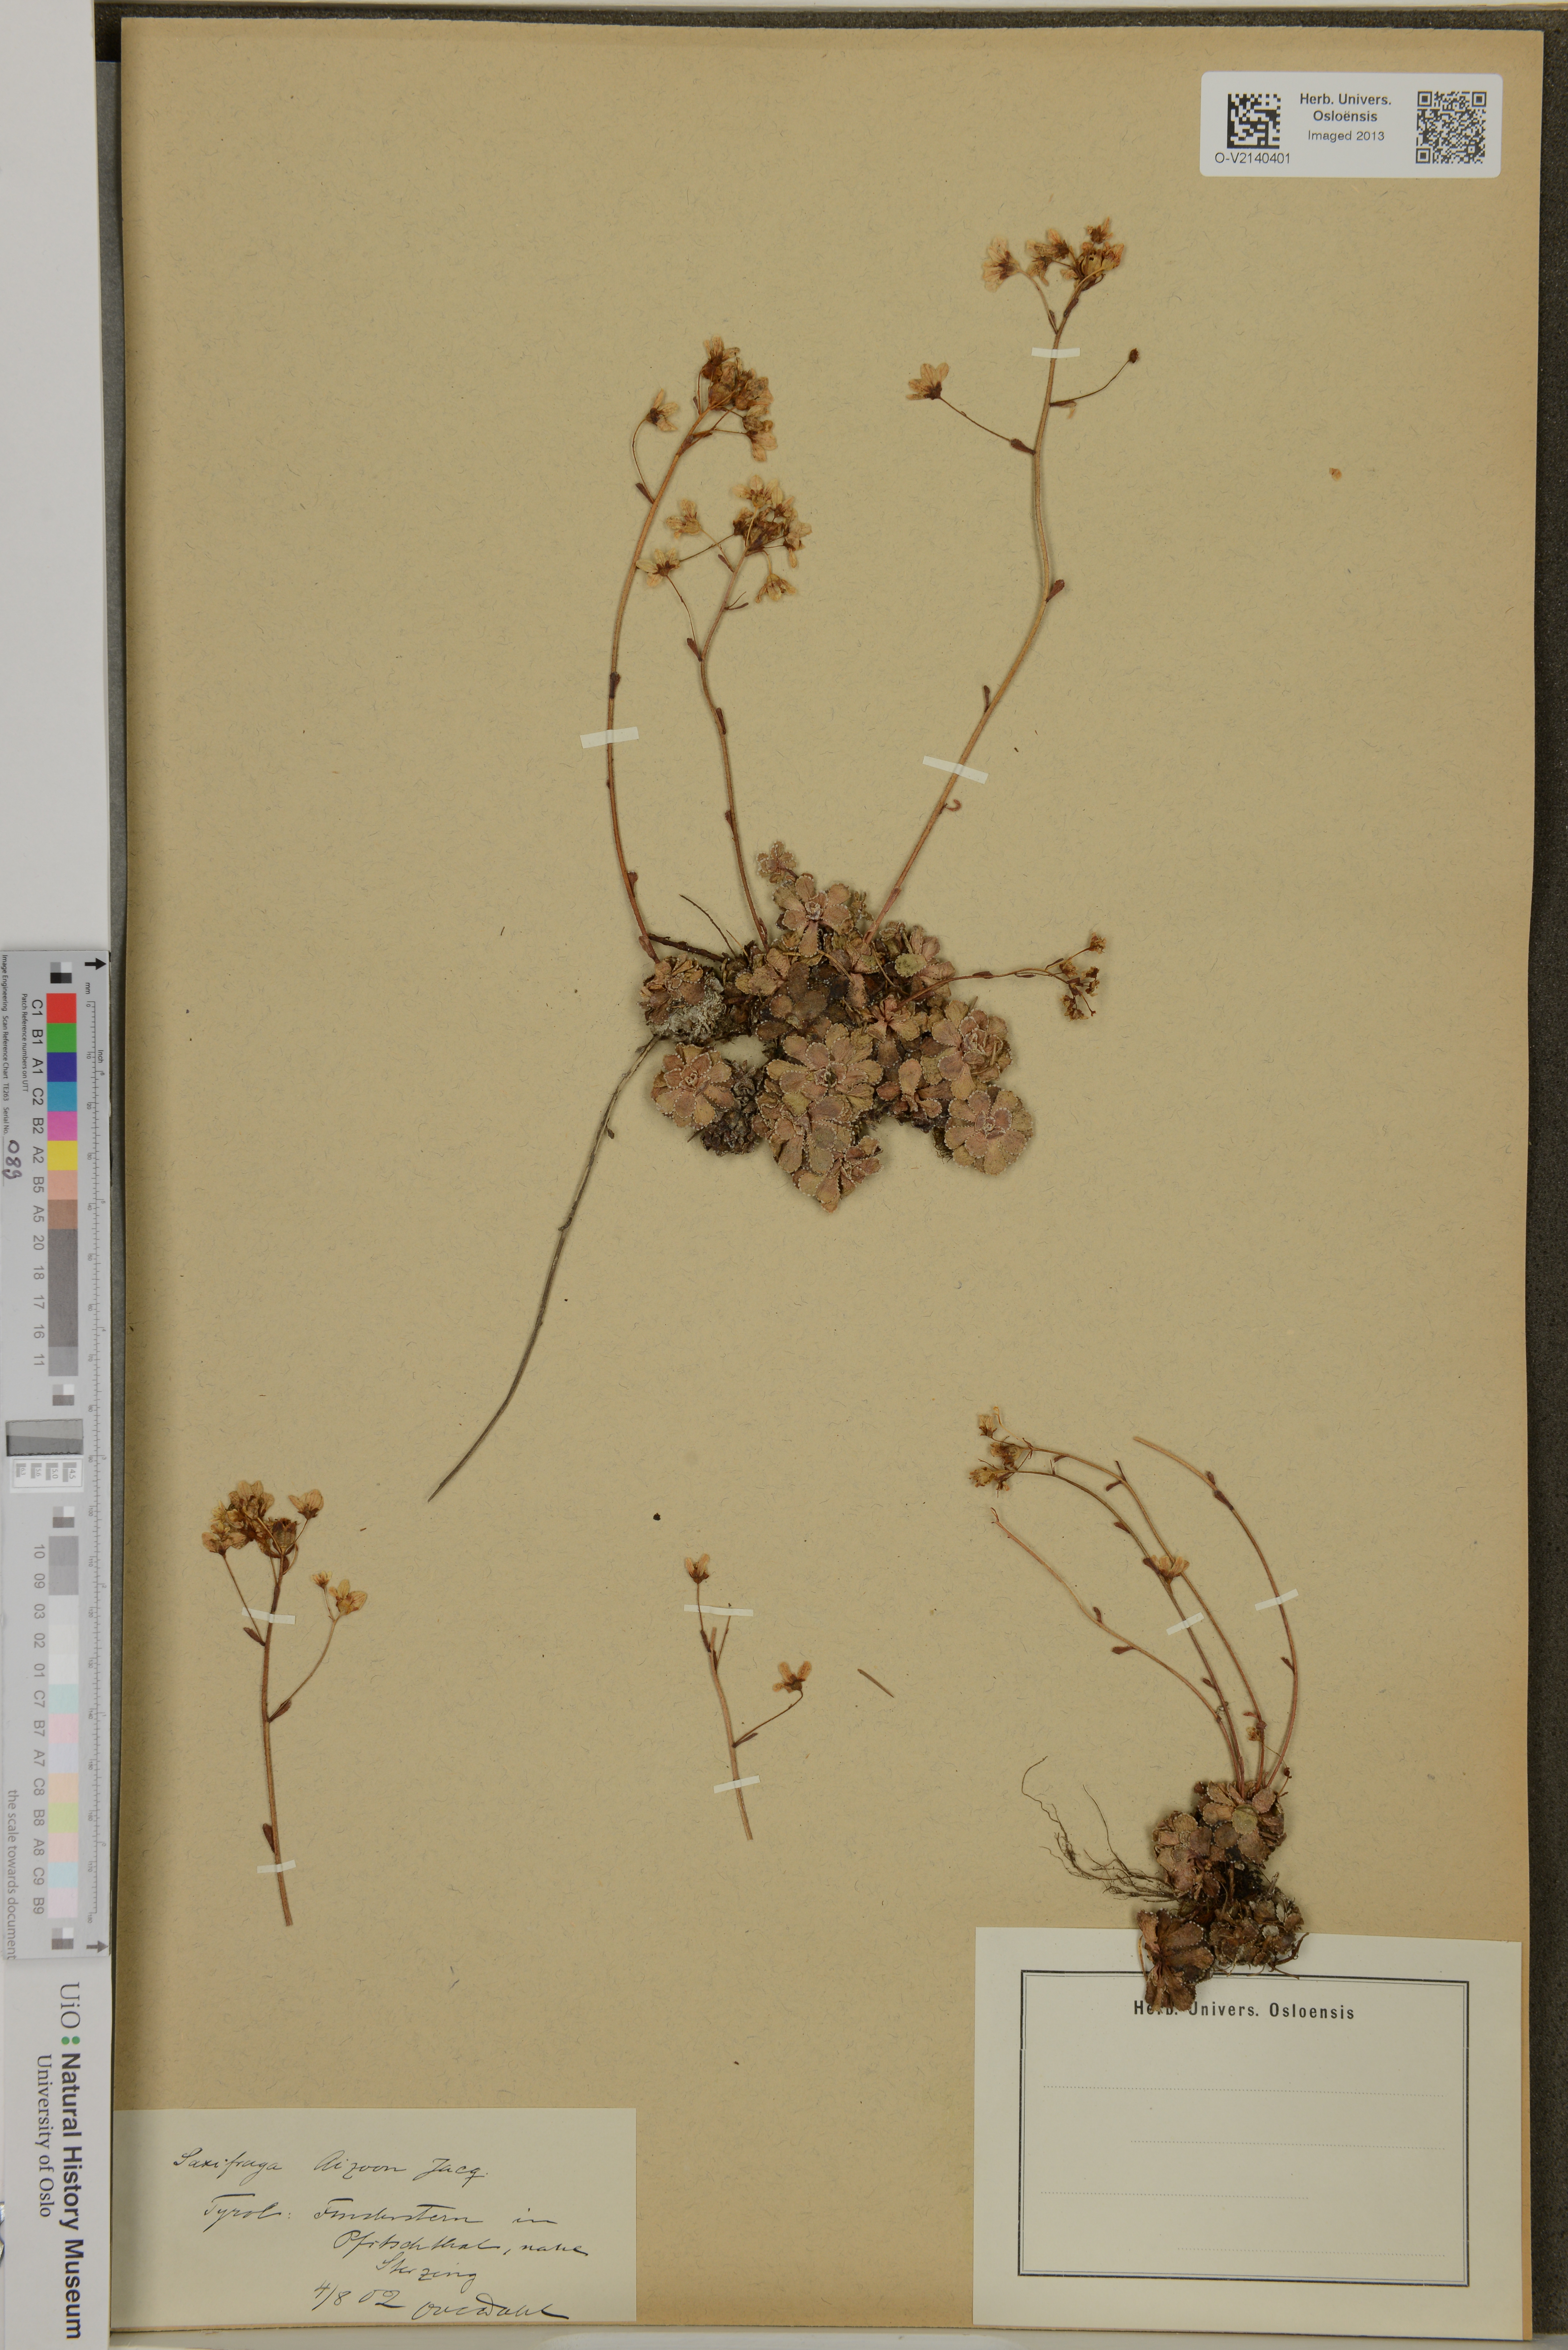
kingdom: Plantae
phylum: Tracheophyta
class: Magnoliopsida
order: Saxifragales
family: Saxifragaceae
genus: Saxifraga
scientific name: Saxifraga paniculata
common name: Livelong saxifrage
